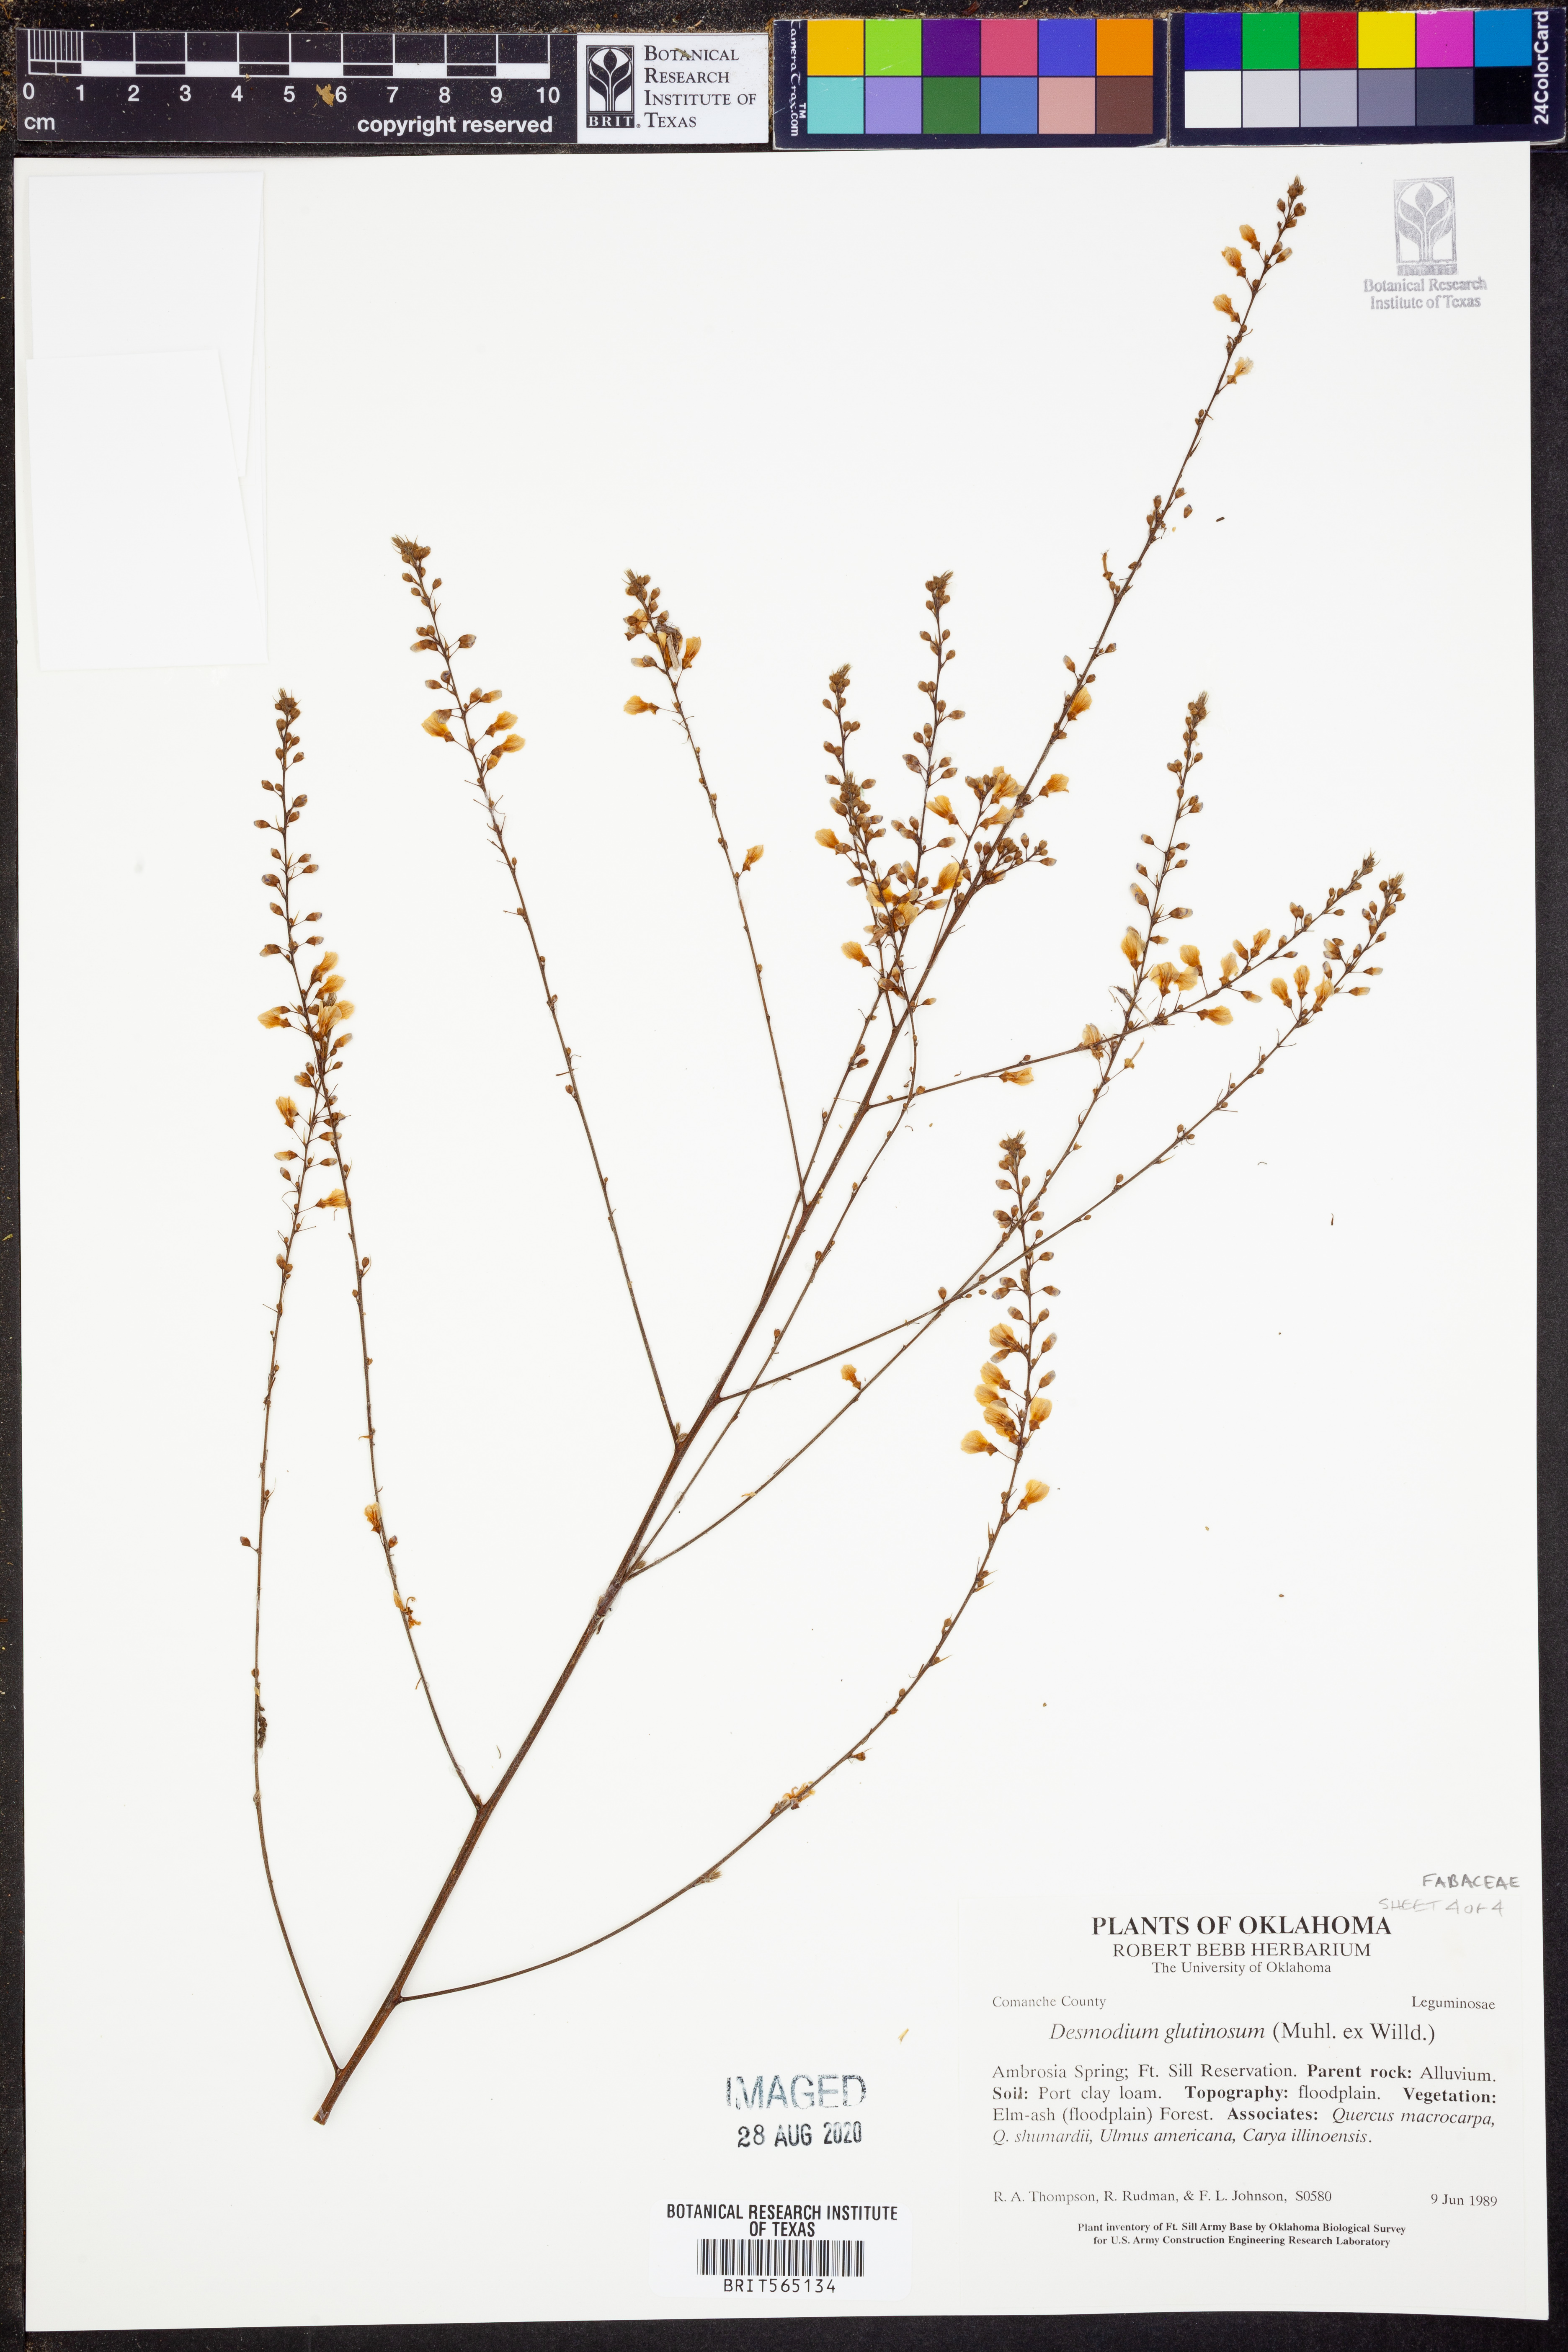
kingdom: Plantae
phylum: Tracheophyta
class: Magnoliopsida
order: Fabales
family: Fabaceae
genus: Hylodesmum
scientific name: Hylodesmum glutinosum
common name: Clustered-leaved tick-trefoil
